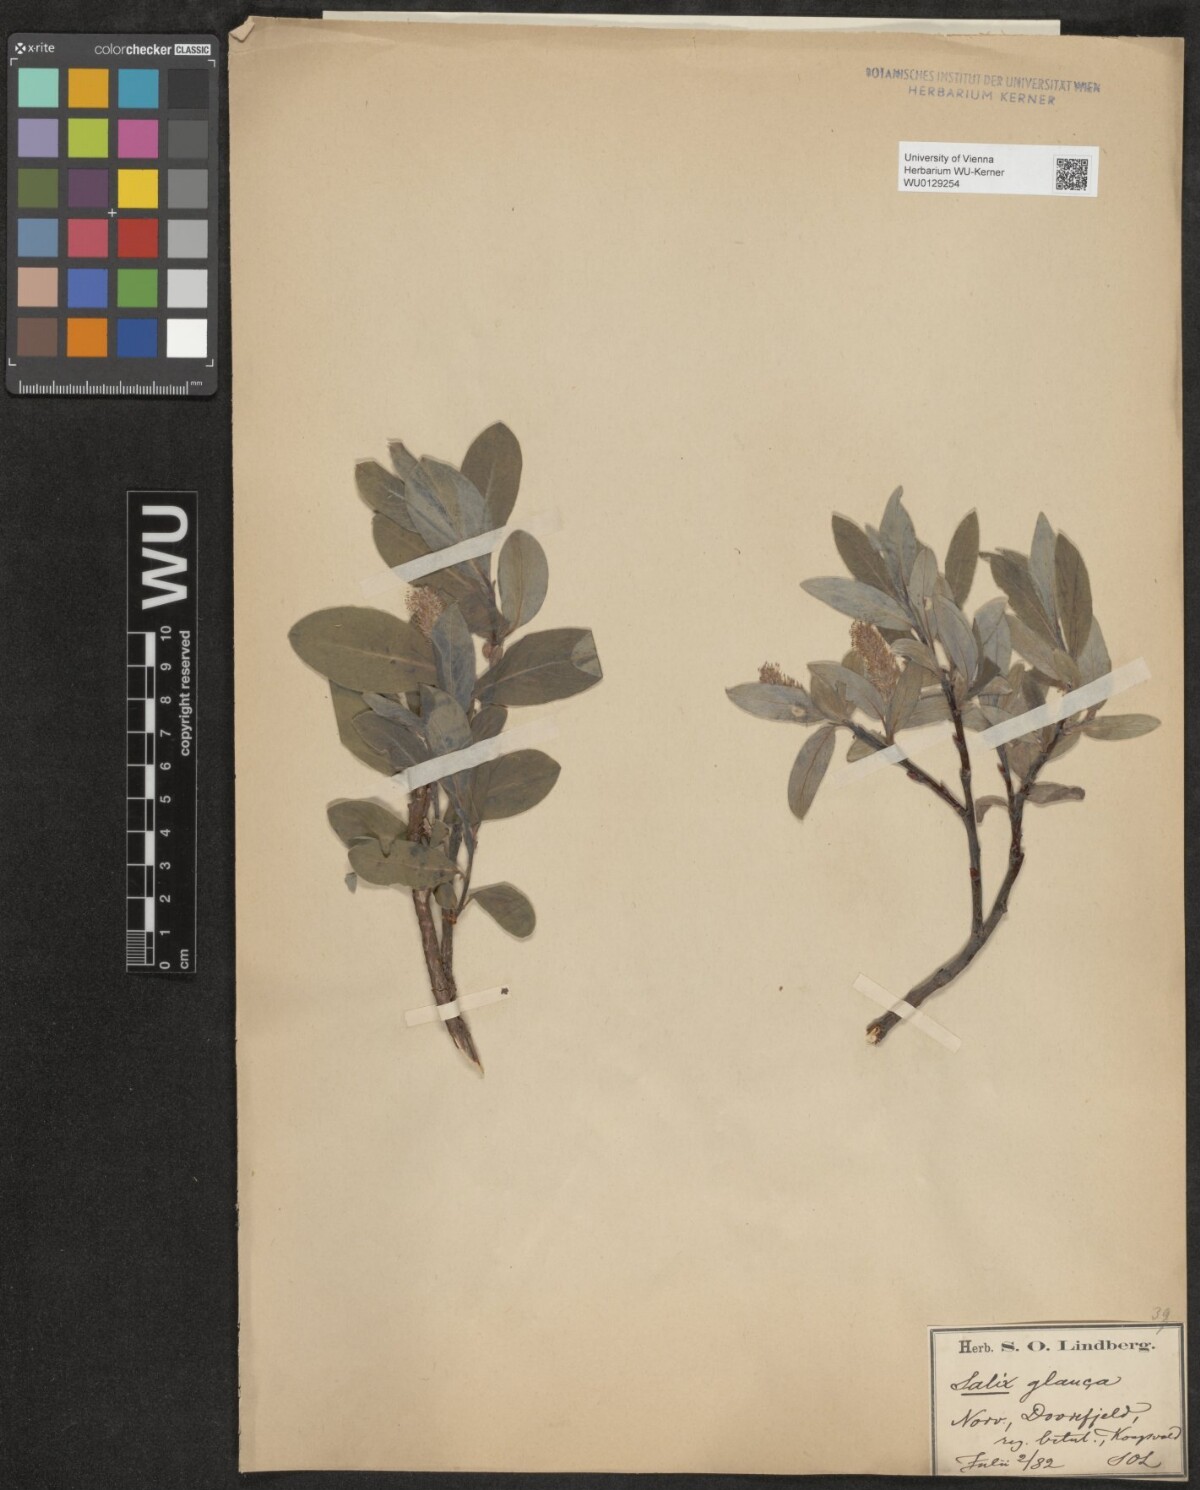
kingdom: Plantae
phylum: Tracheophyta
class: Magnoliopsida
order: Malpighiales
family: Salicaceae
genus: Salix
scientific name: Salix glauca
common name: Glaucous willow
